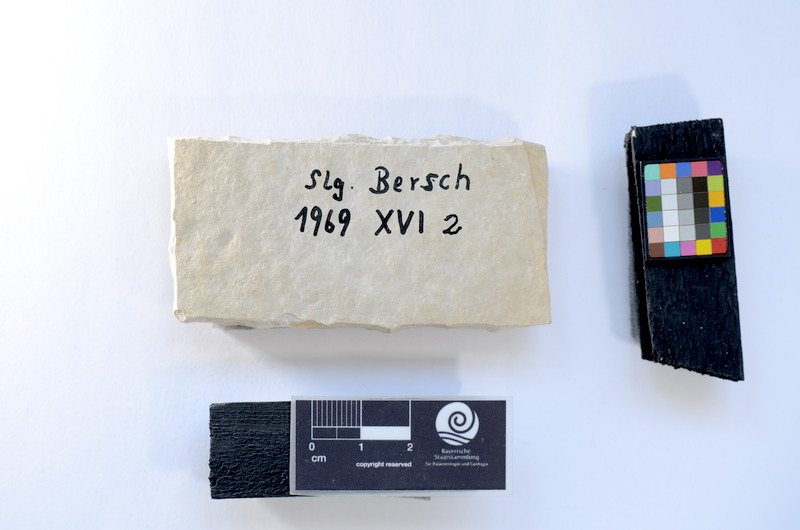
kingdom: Animalia
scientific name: Animalia
